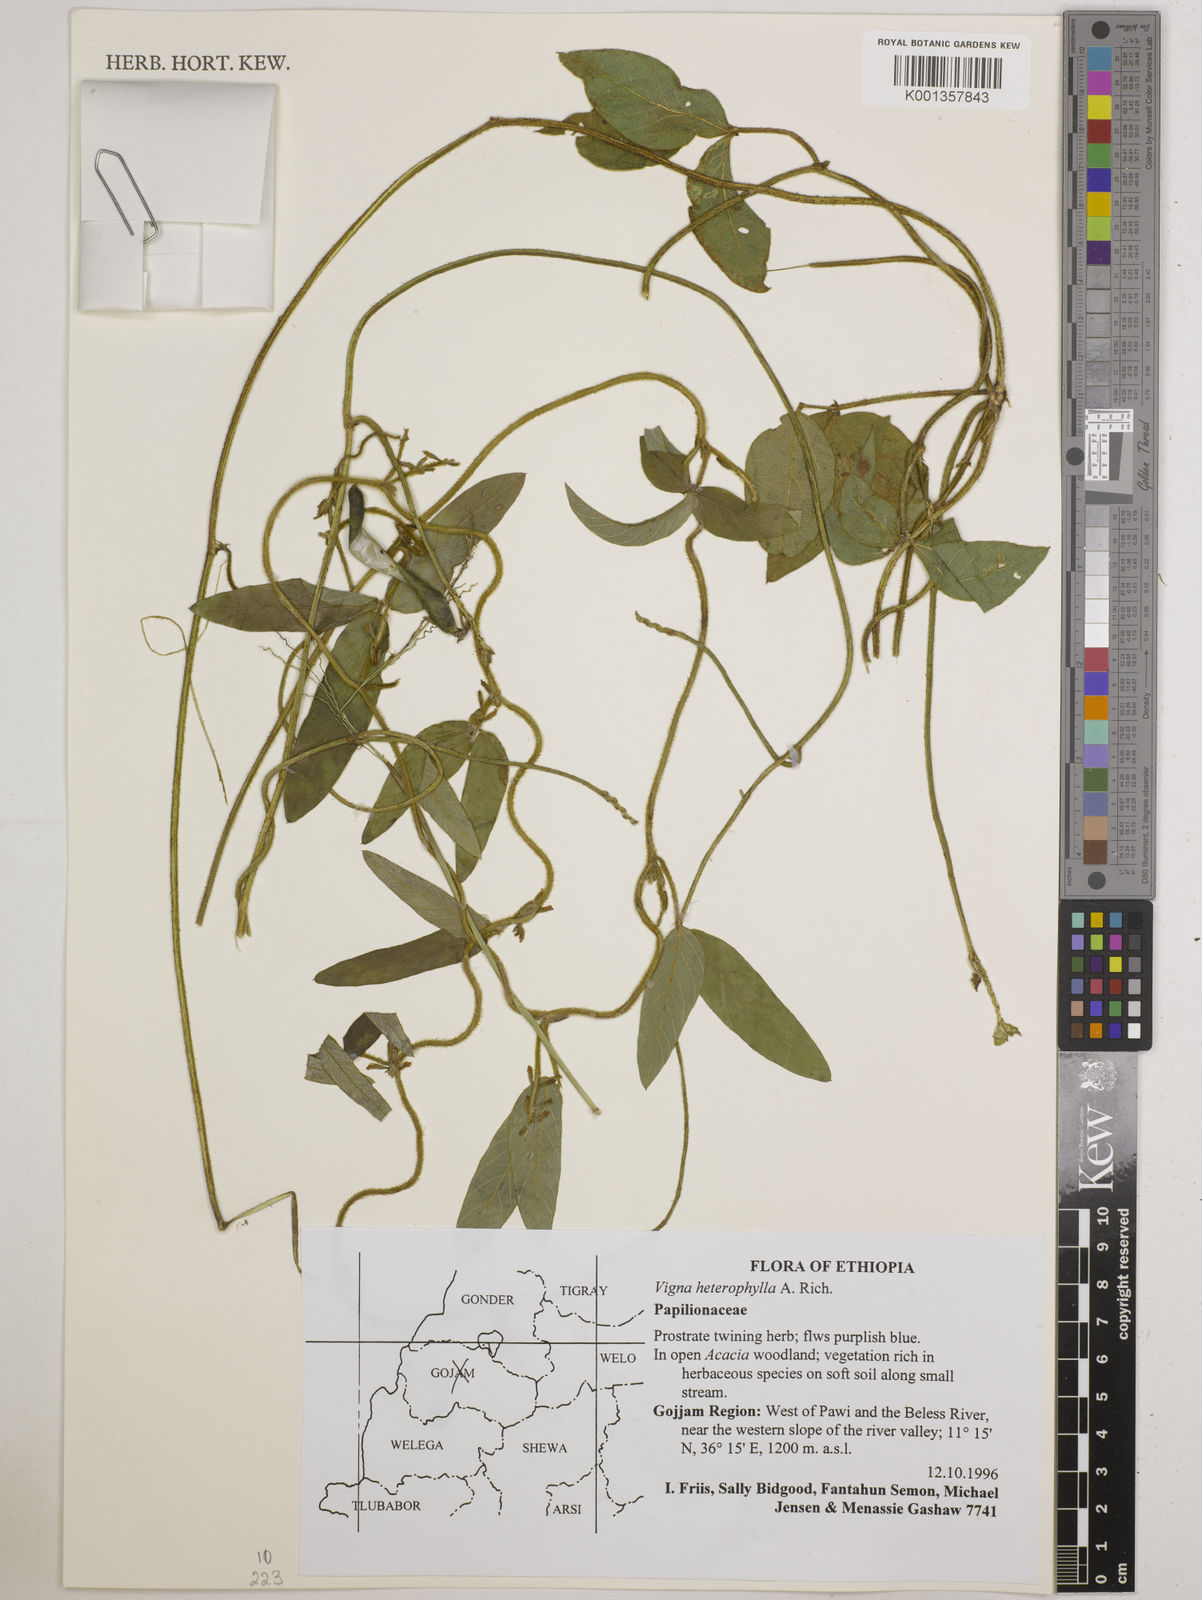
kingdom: Plantae
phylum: Tracheophyta
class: Magnoliopsida
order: Fabales
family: Fabaceae
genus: Vigna
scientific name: Vigna heterophylla
